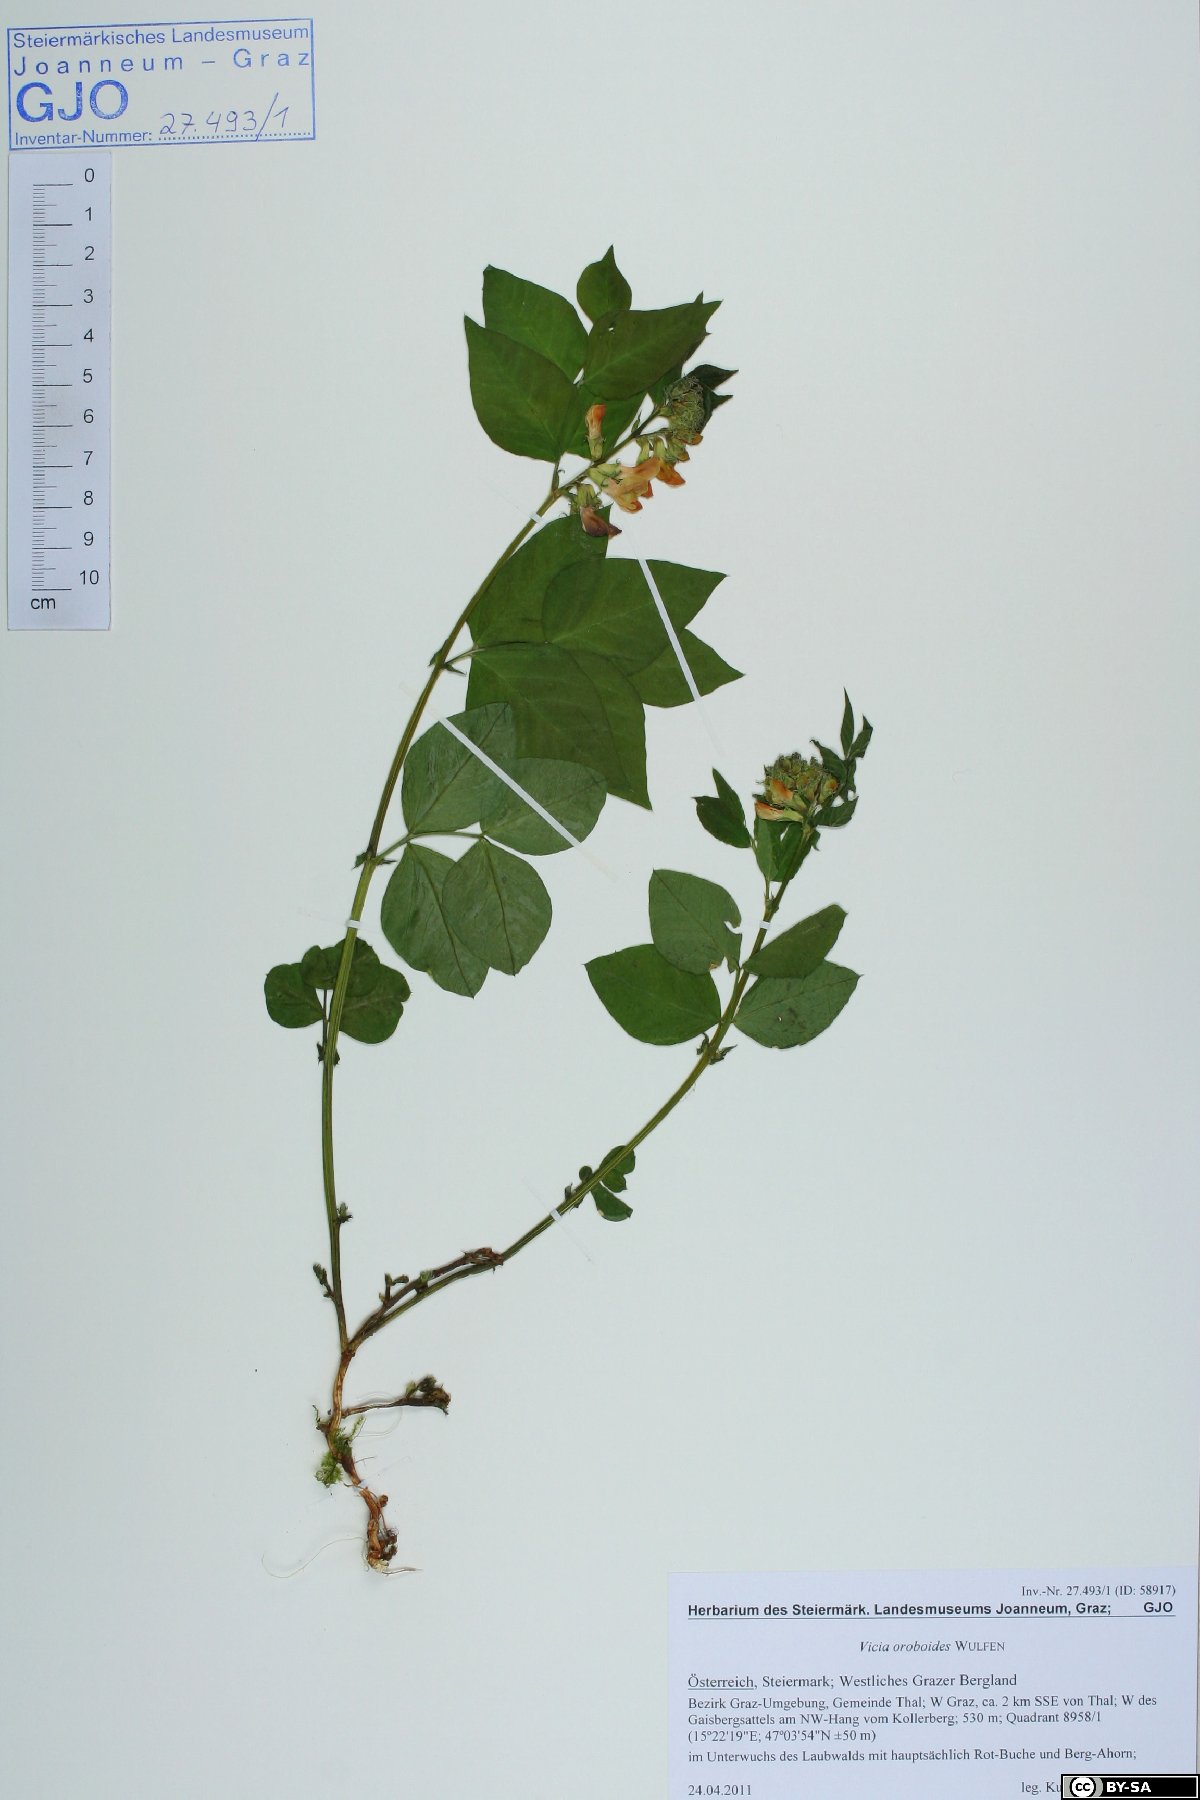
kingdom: Plantae
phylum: Tracheophyta
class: Magnoliopsida
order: Fabales
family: Fabaceae
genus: Vicia
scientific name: Vicia oroboides
